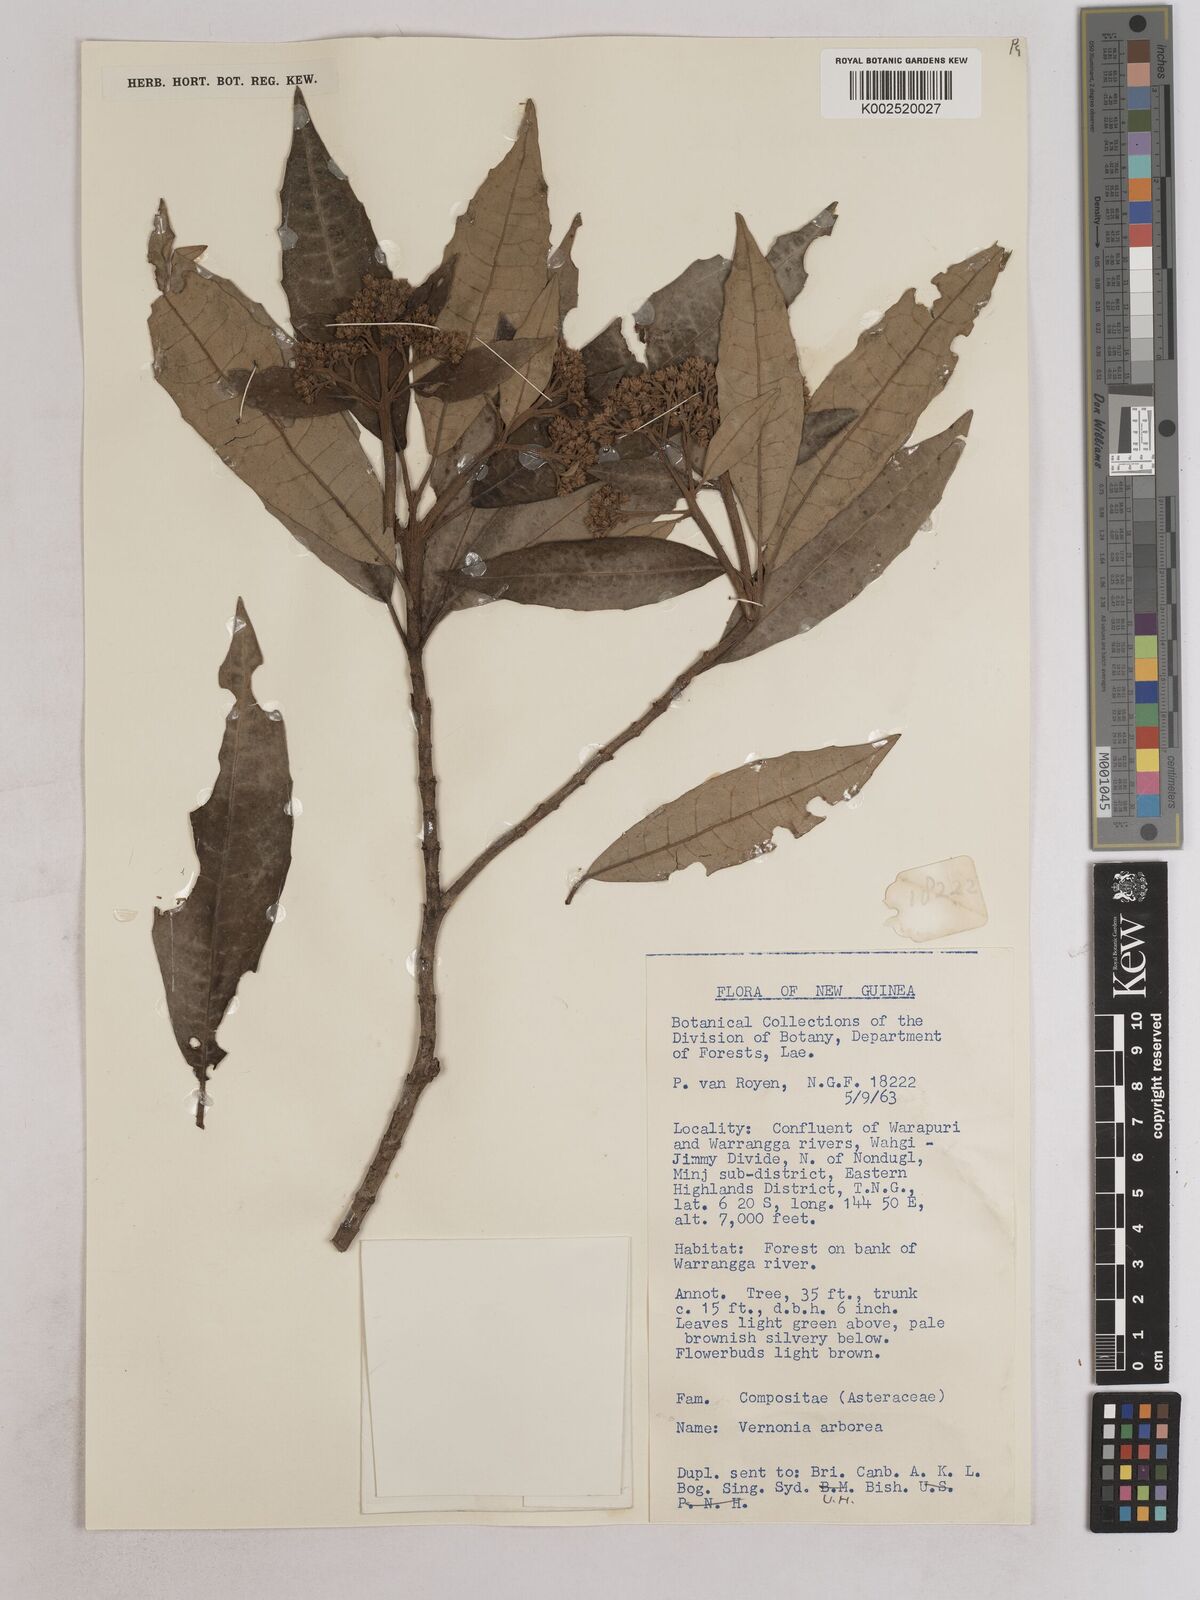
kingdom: Plantae
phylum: Tracheophyta
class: Magnoliopsida
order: Asterales
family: Asteraceae
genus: Strobocalyx
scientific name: Strobocalyx arborea
